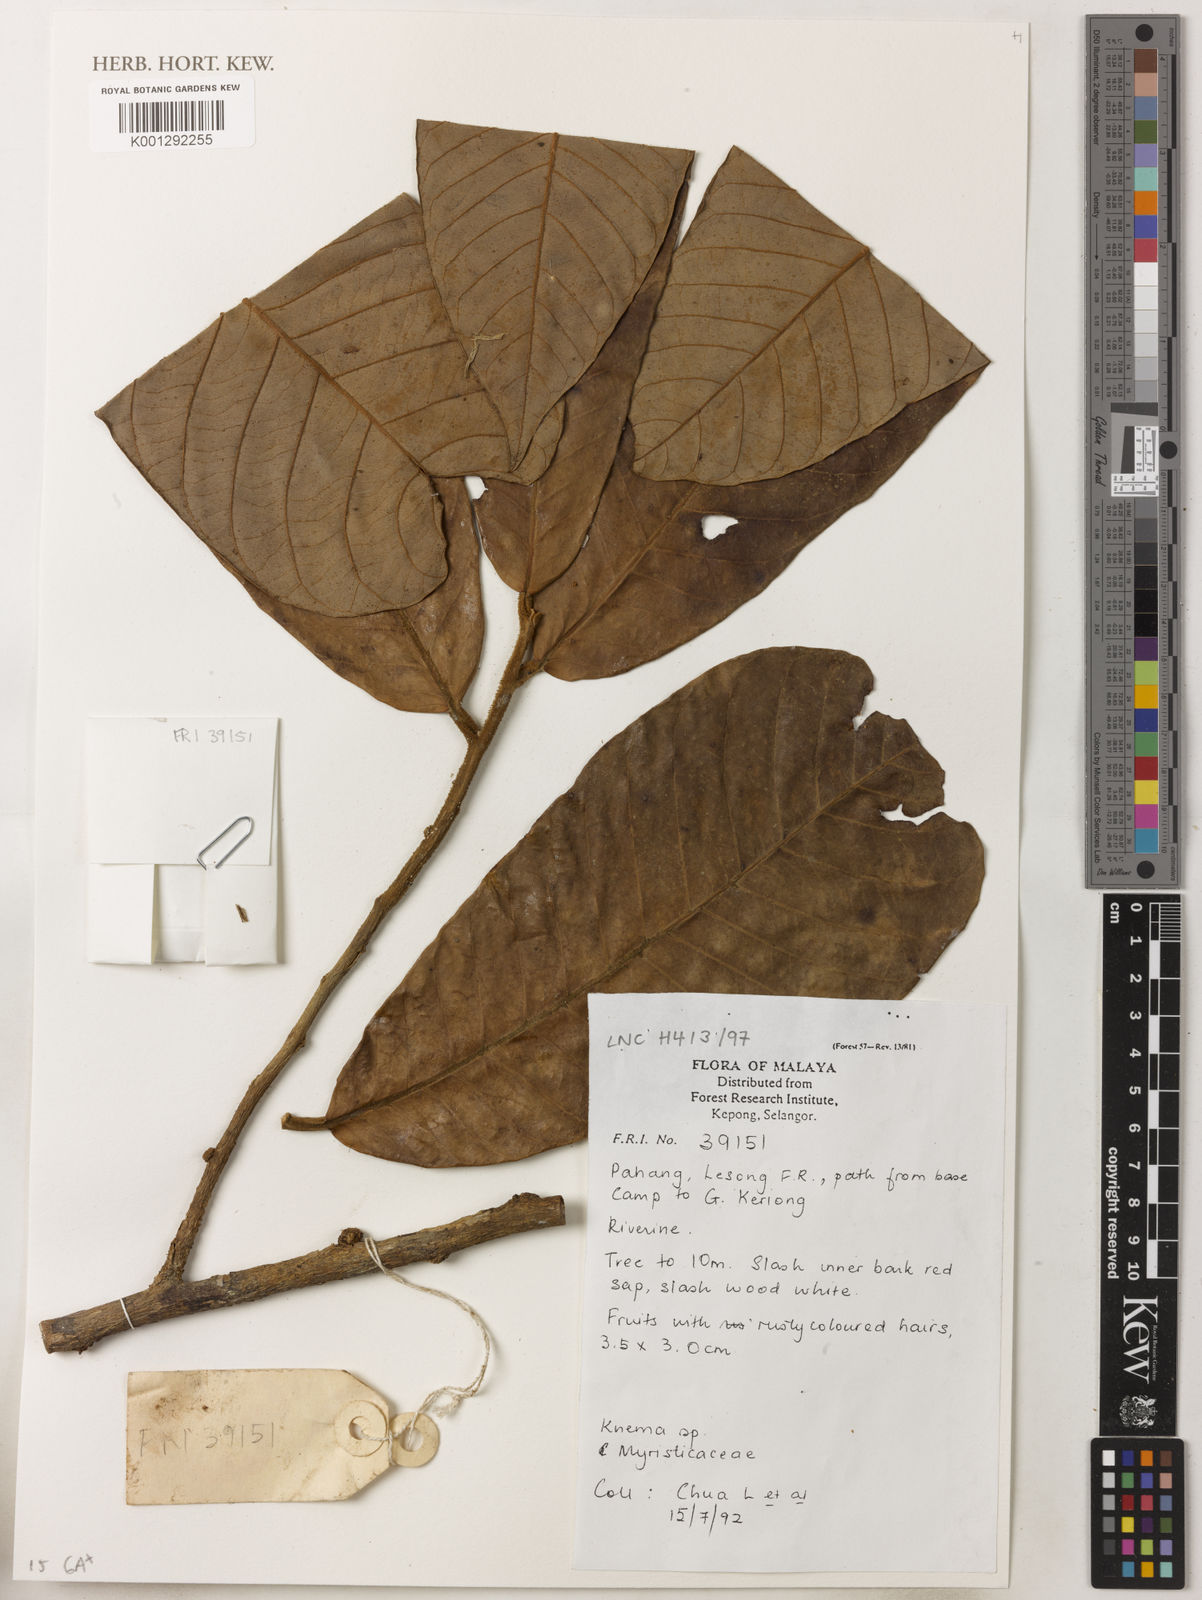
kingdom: Plantae
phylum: Tracheophyta
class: Magnoliopsida
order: Magnoliales
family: Myristicaceae
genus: Knema
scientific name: Knema
